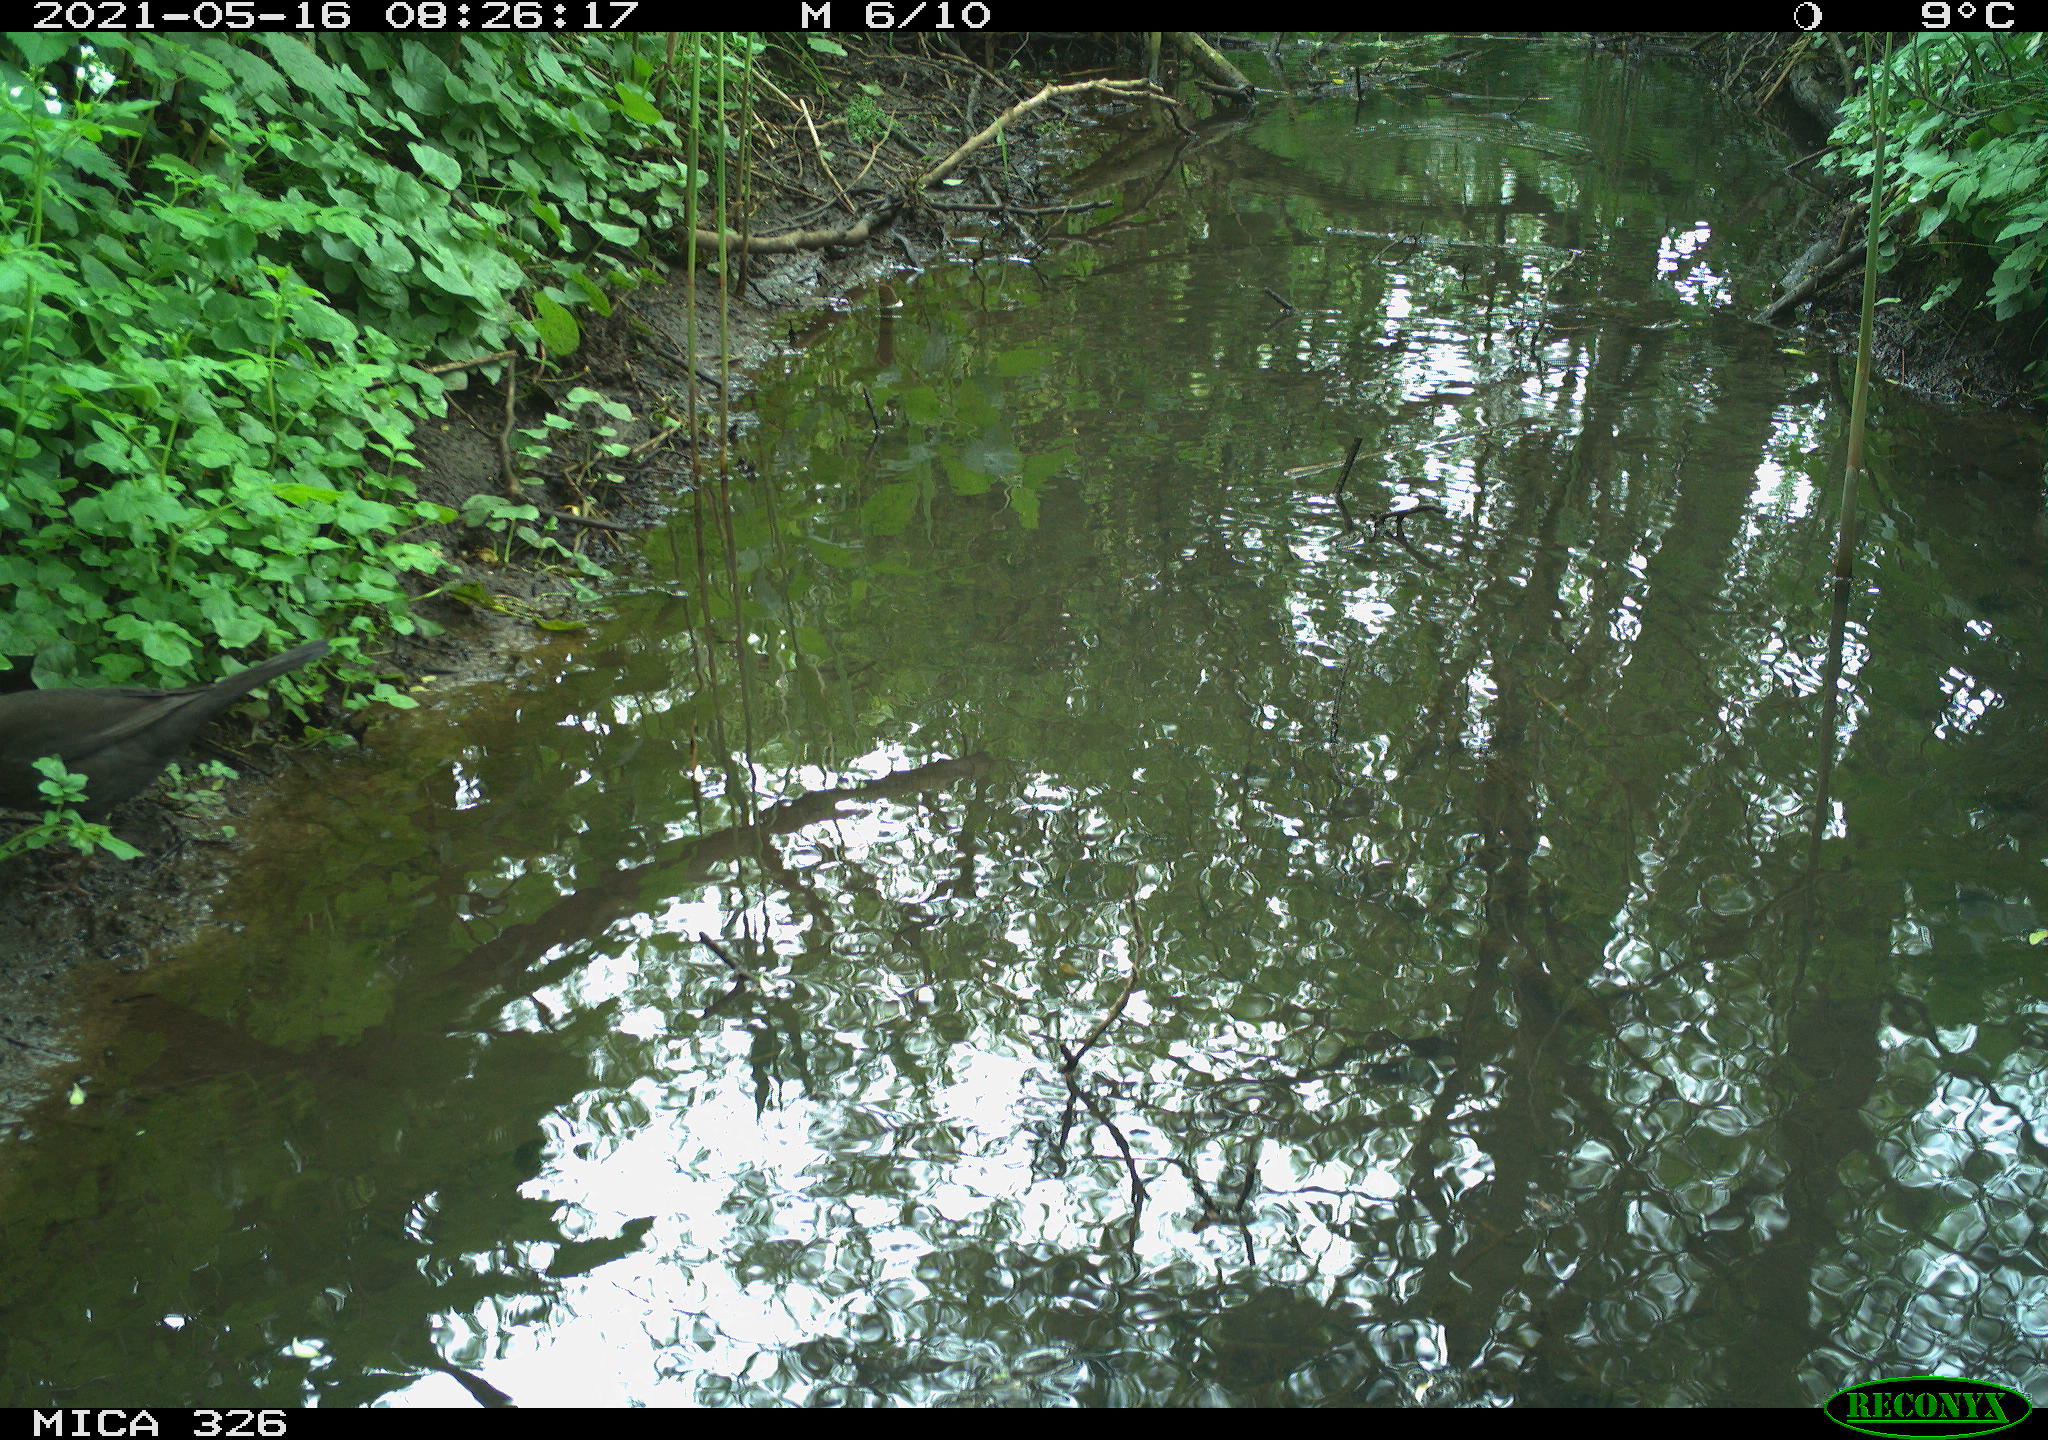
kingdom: Animalia
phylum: Chordata
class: Aves
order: Passeriformes
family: Turdidae
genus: Turdus
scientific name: Turdus merula
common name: Common blackbird
